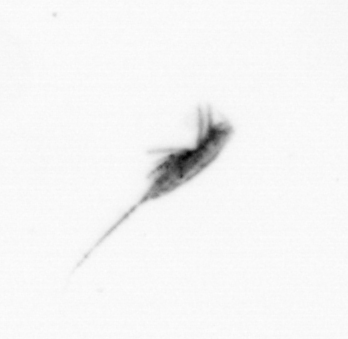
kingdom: Animalia
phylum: Arthropoda
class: Copepoda
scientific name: Copepoda
